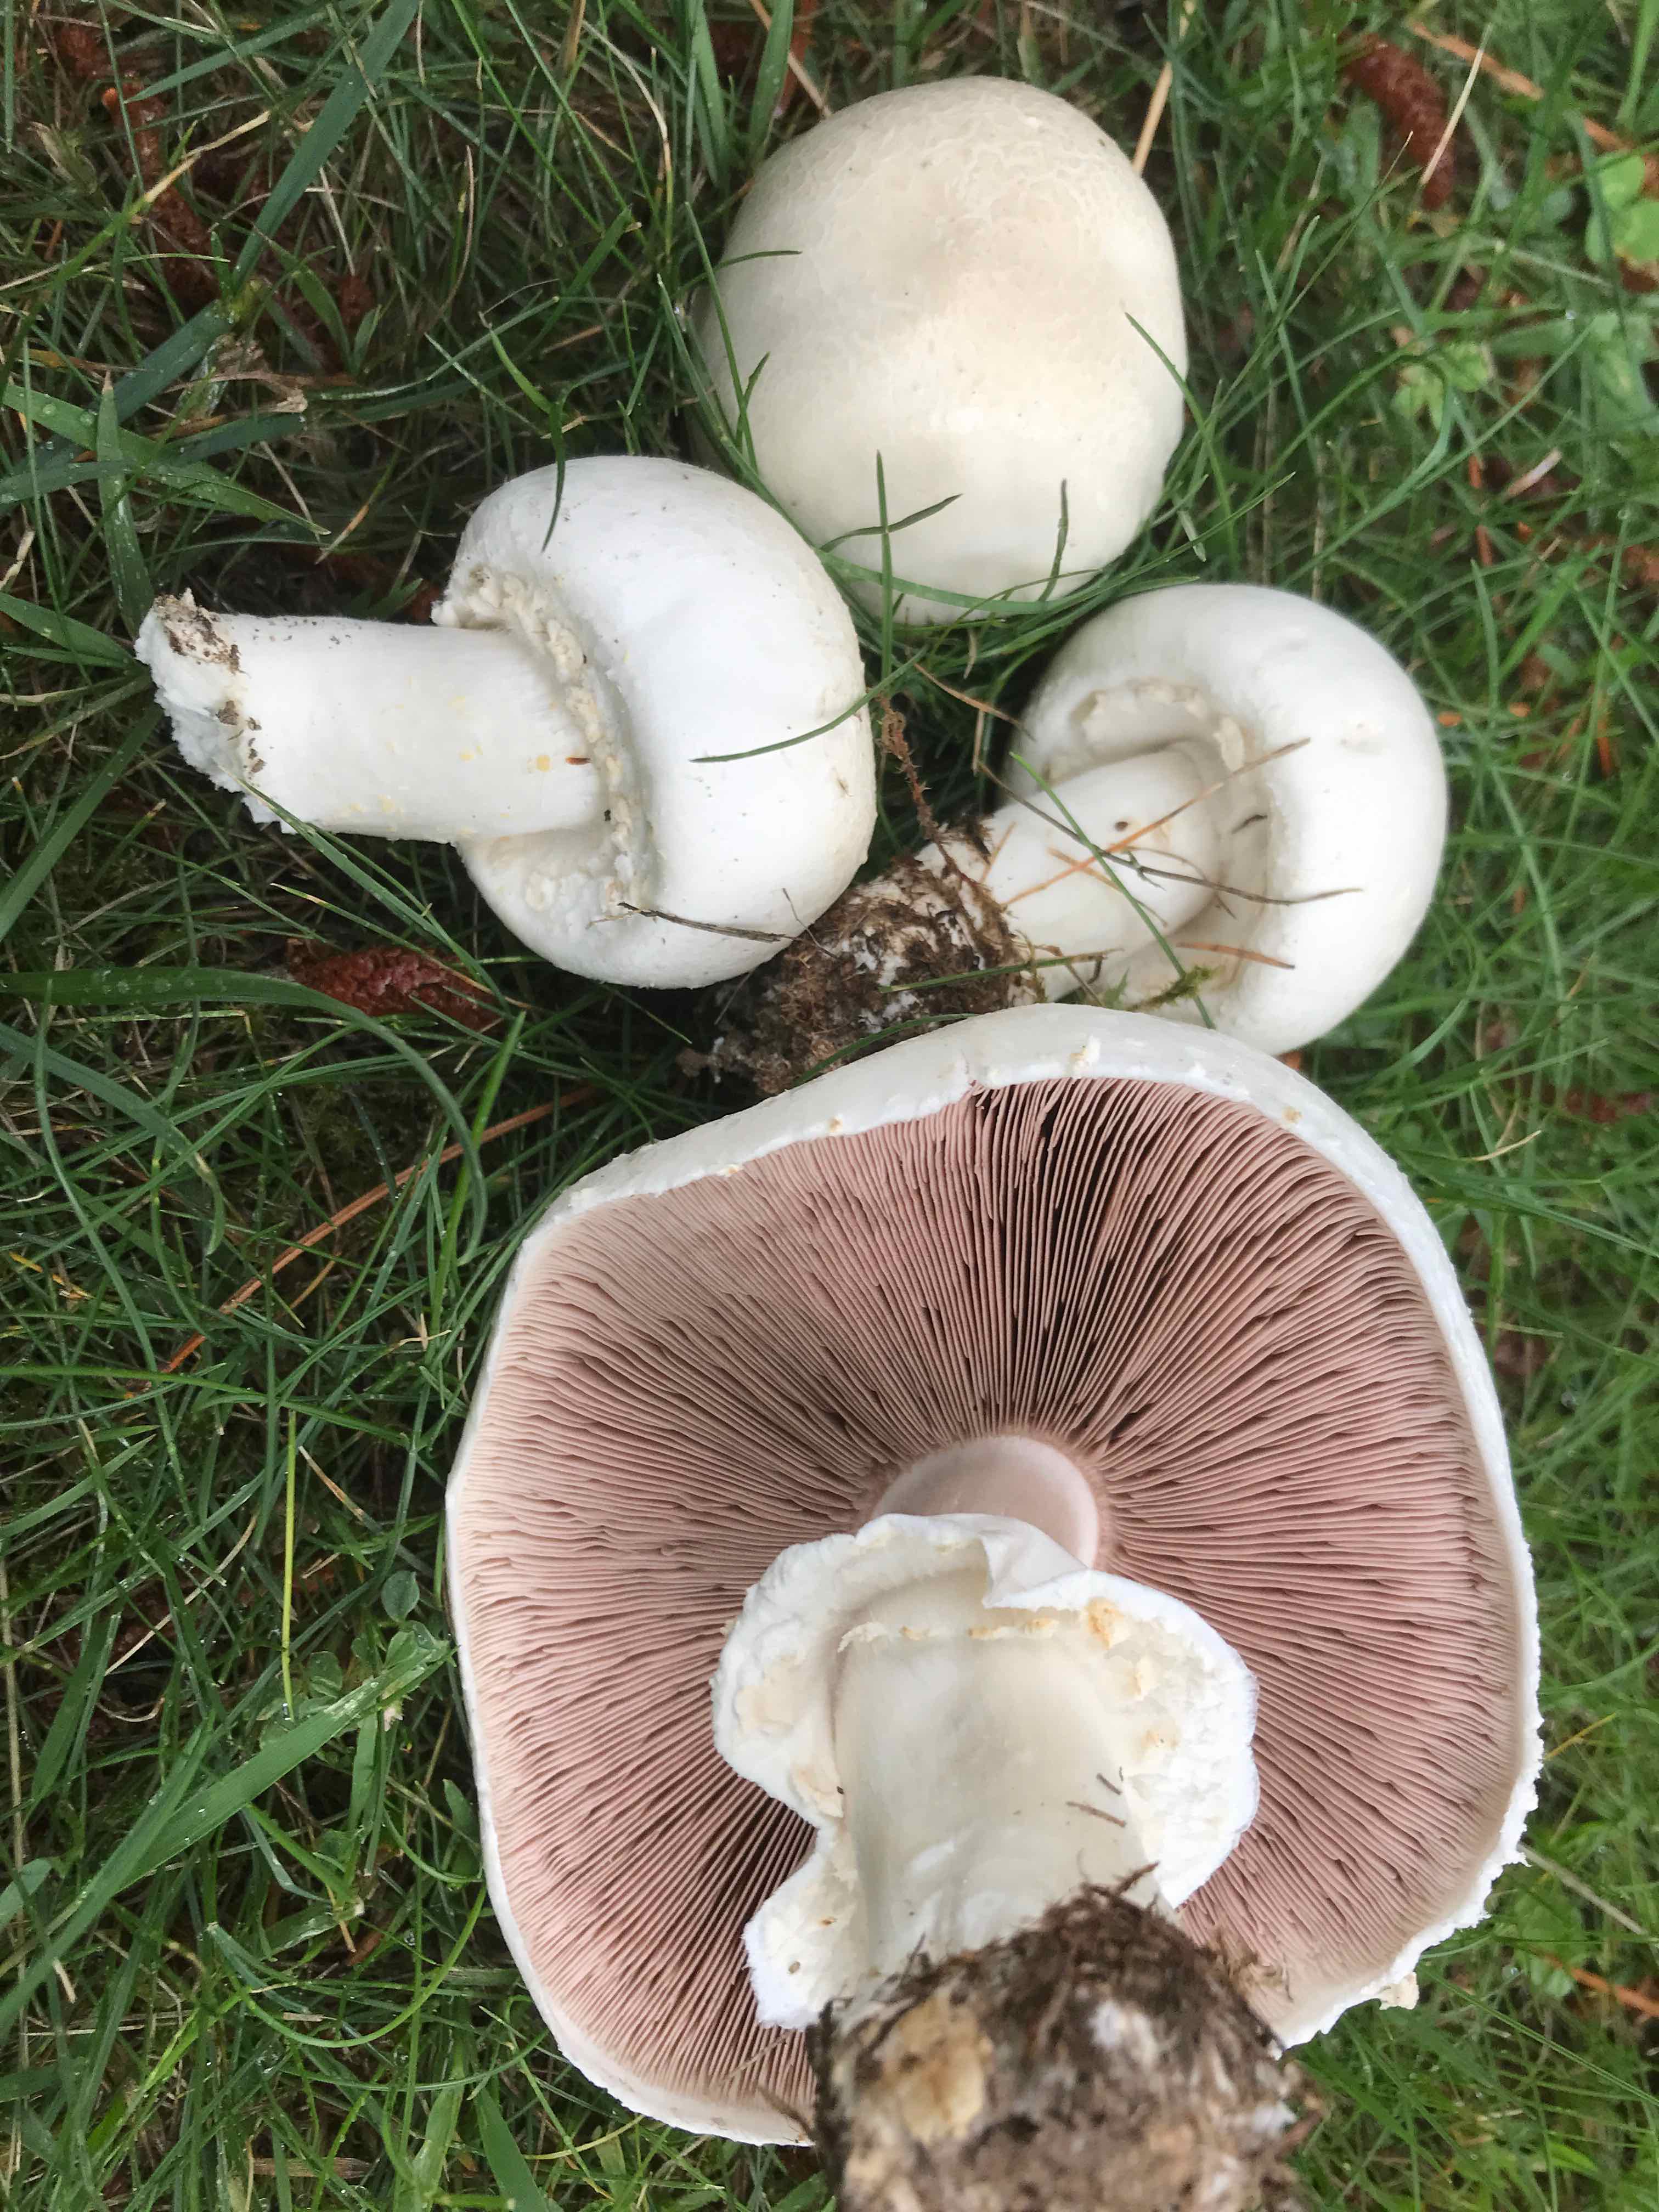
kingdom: Fungi
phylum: Basidiomycota
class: Agaricomycetes
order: Agaricales
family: Agaricaceae
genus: Agaricus
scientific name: Agaricus arvensis
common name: ager-champignon
